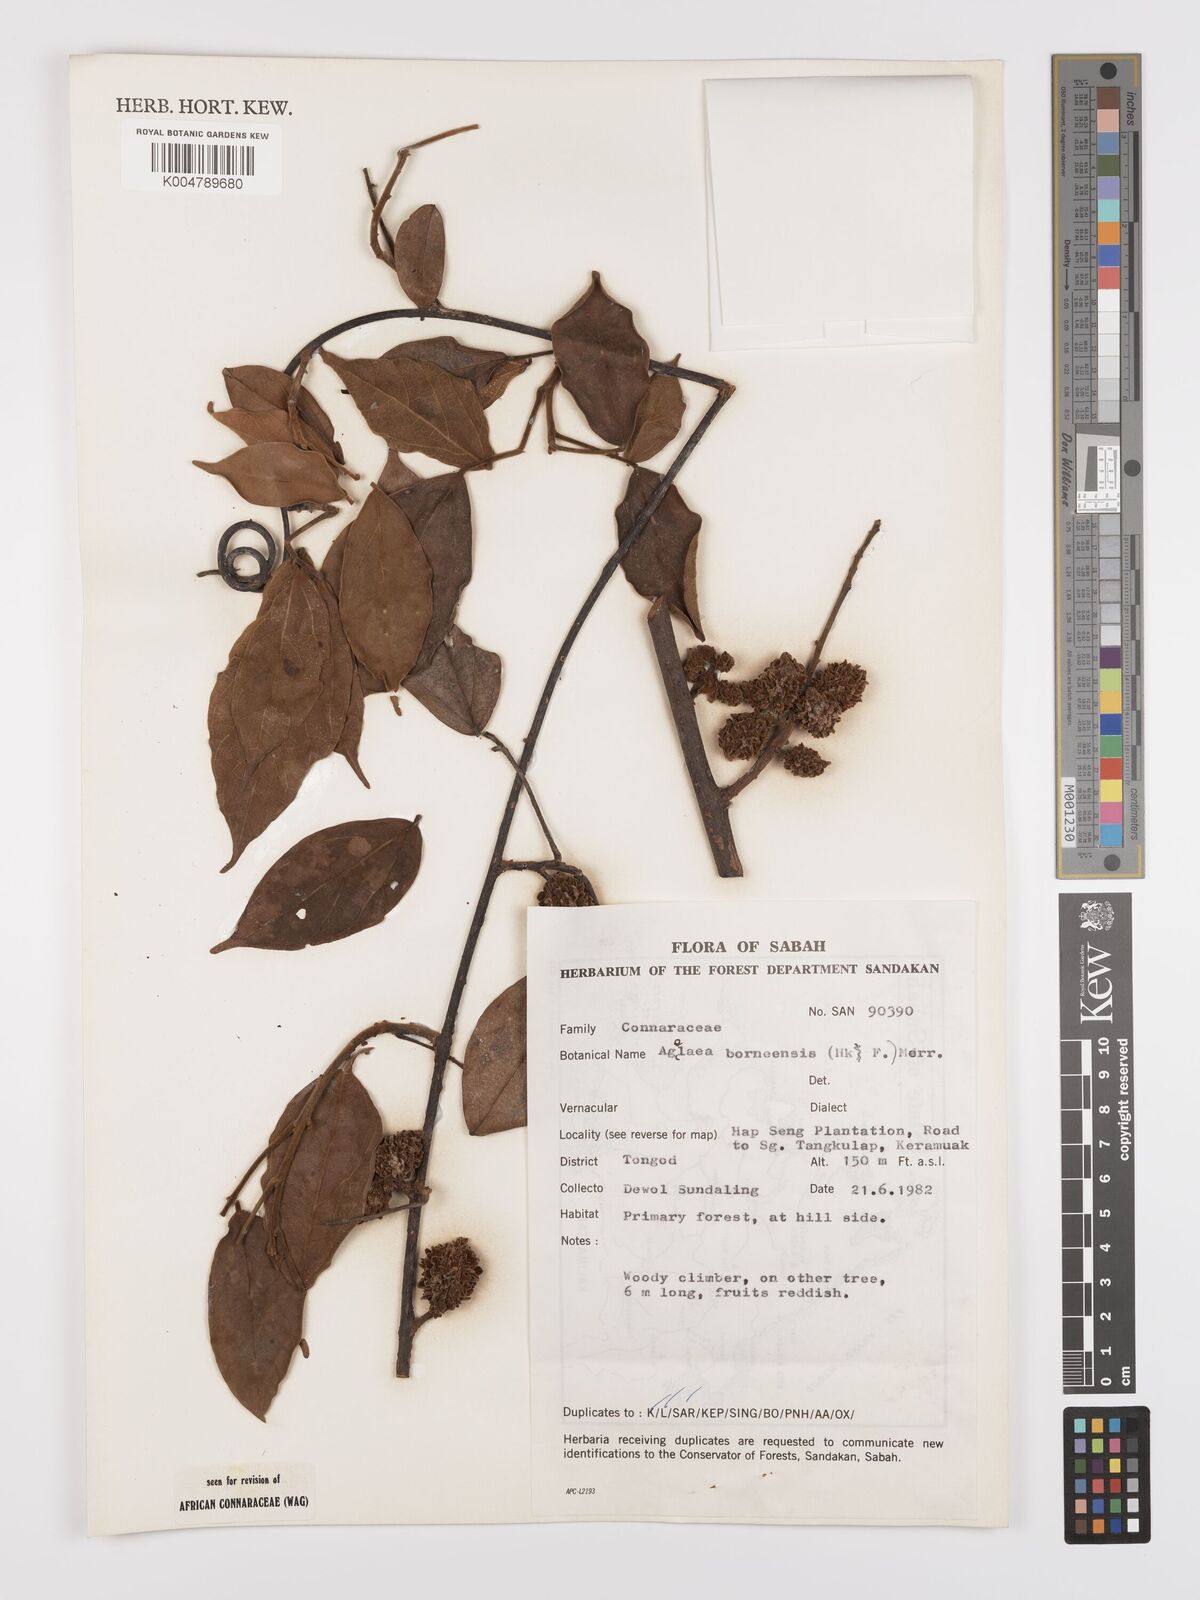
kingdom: Plantae
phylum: Tracheophyta
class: Magnoliopsida
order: Oxalidales
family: Connaraceae
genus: Agelaea
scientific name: Agelaea borneensis
